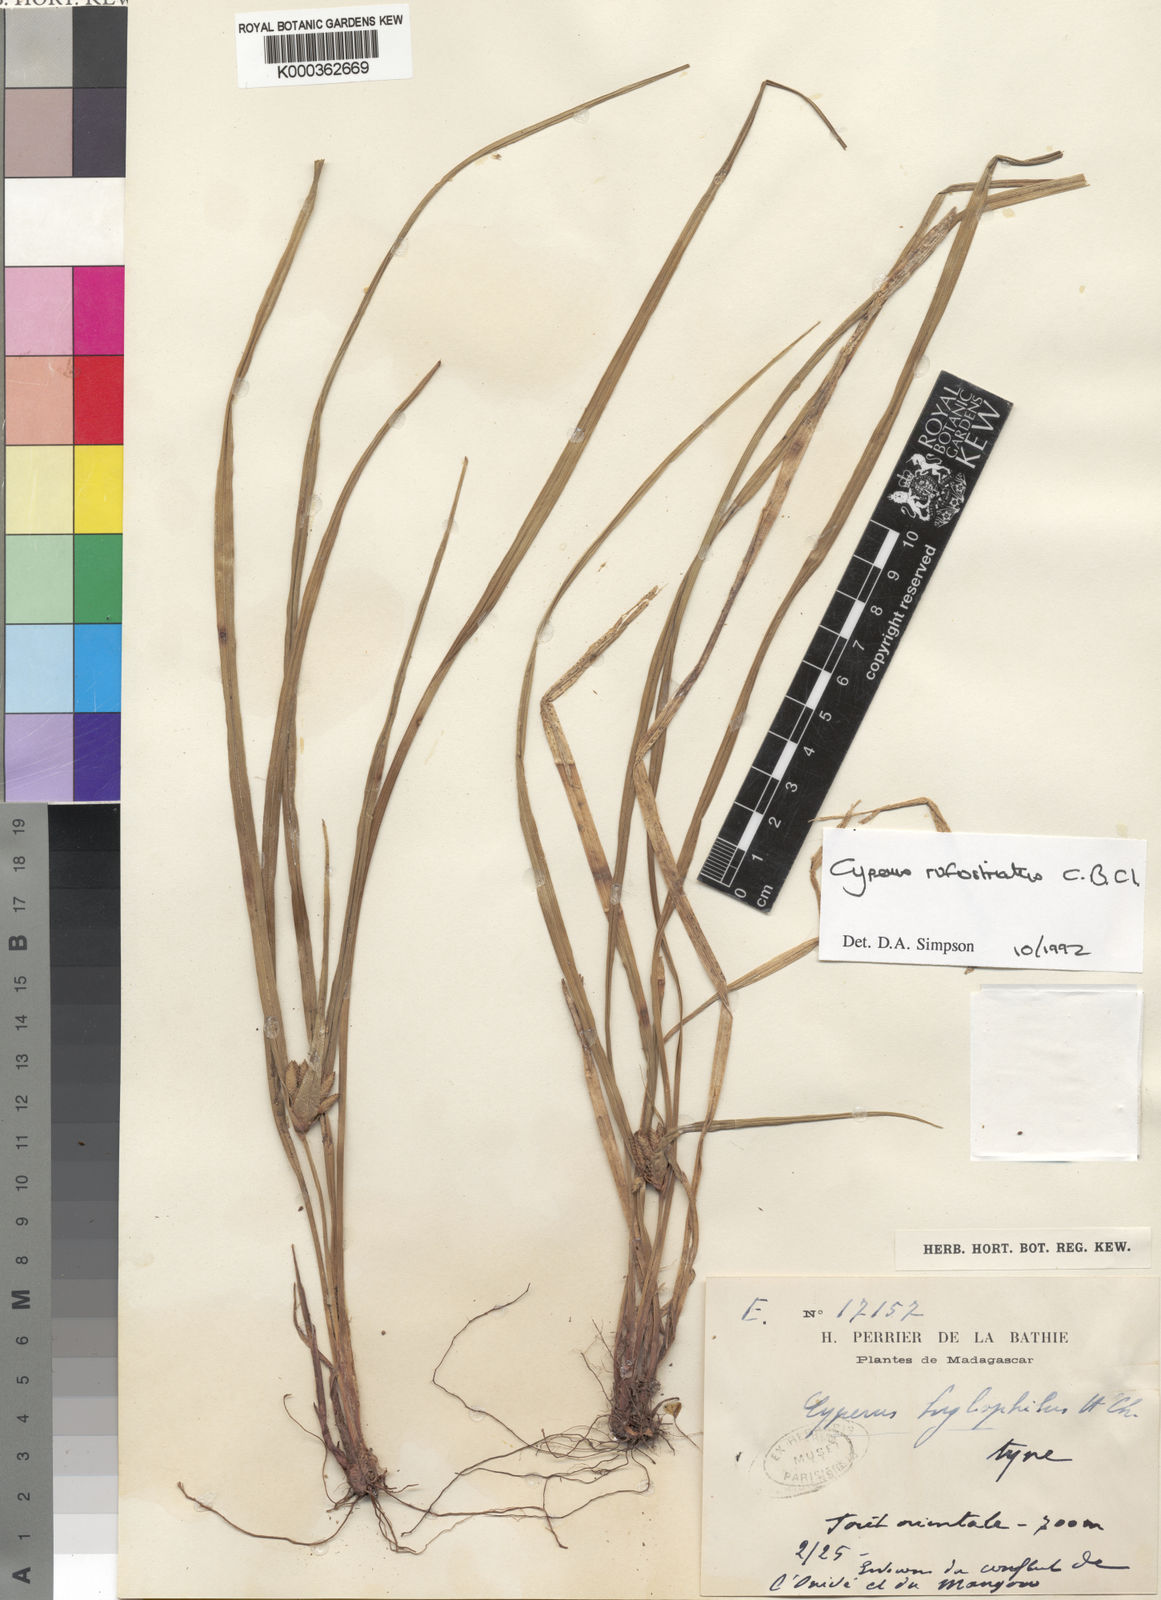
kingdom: Plantae
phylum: Tracheophyta
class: Liliopsida
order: Poales
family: Cyperaceae
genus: Cyperus
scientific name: Cyperus rufostriatus
